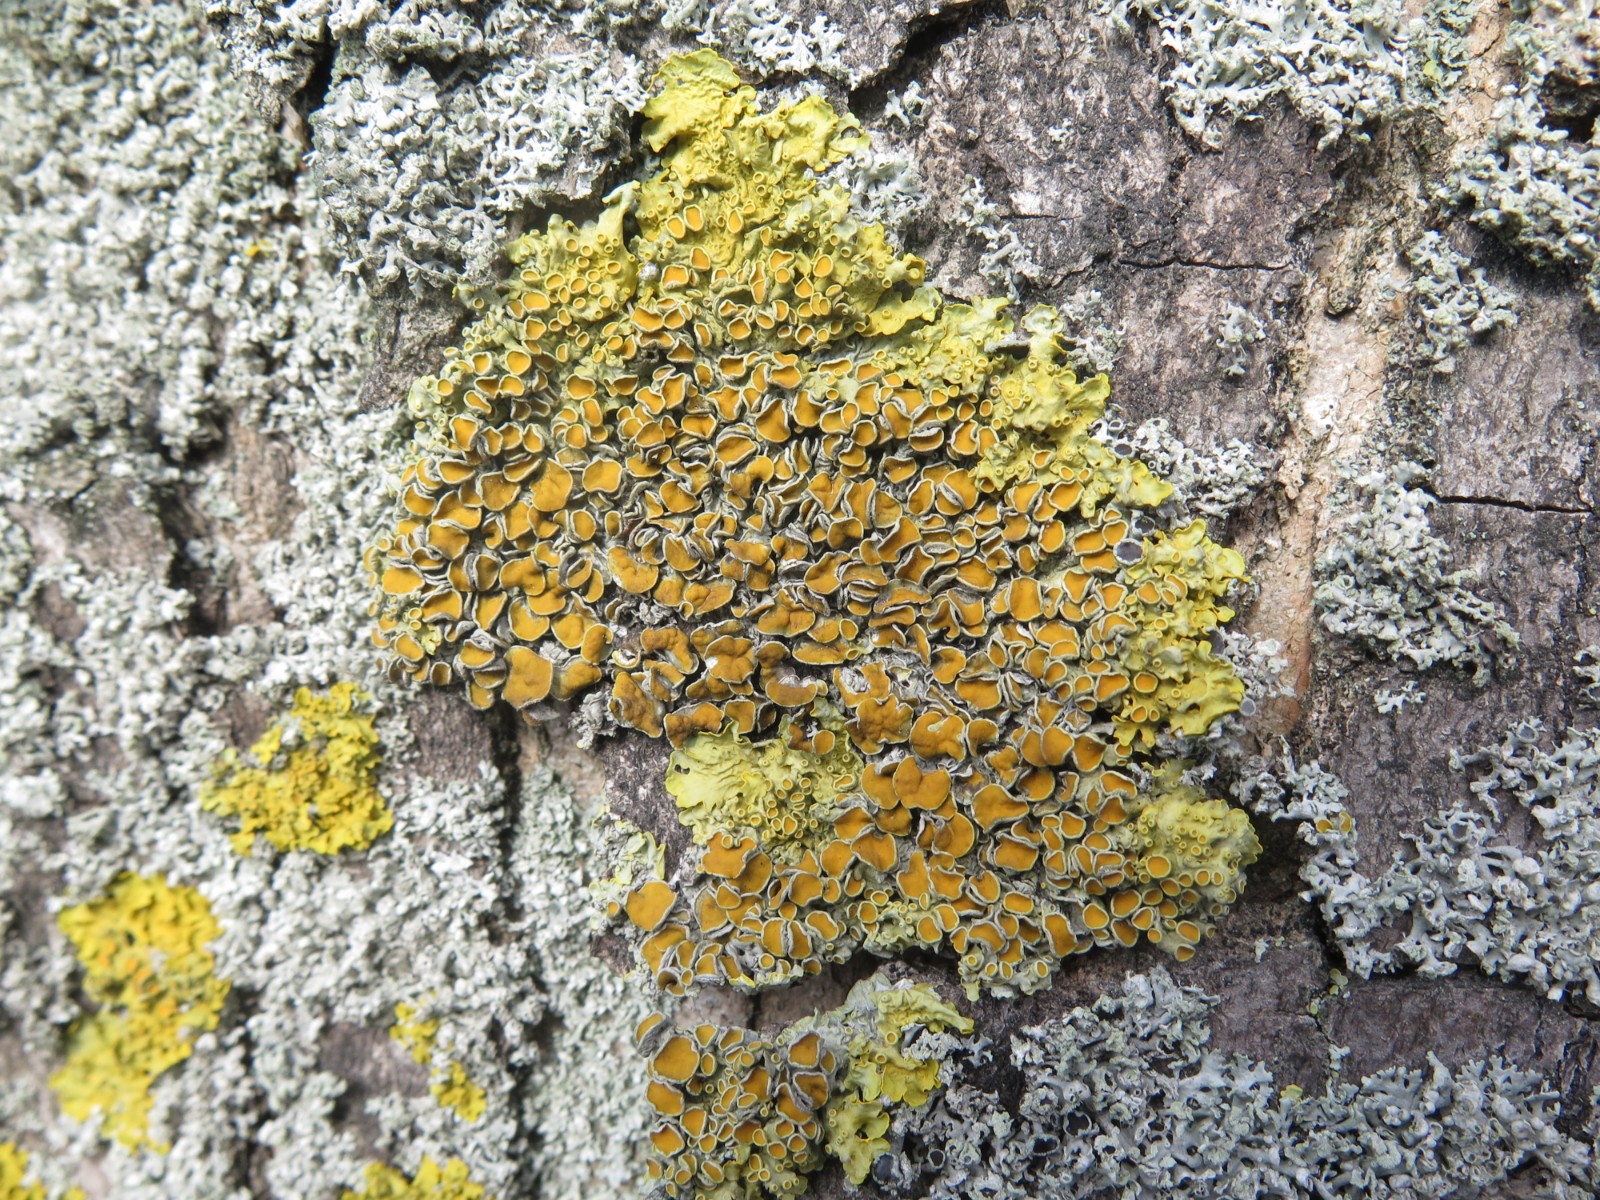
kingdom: Fungi
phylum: Ascomycota
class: Lecanoromycetes
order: Teloschistales
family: Teloschistaceae
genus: Xanthoria
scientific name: Xanthoria parietina
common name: almindelig væggelav
